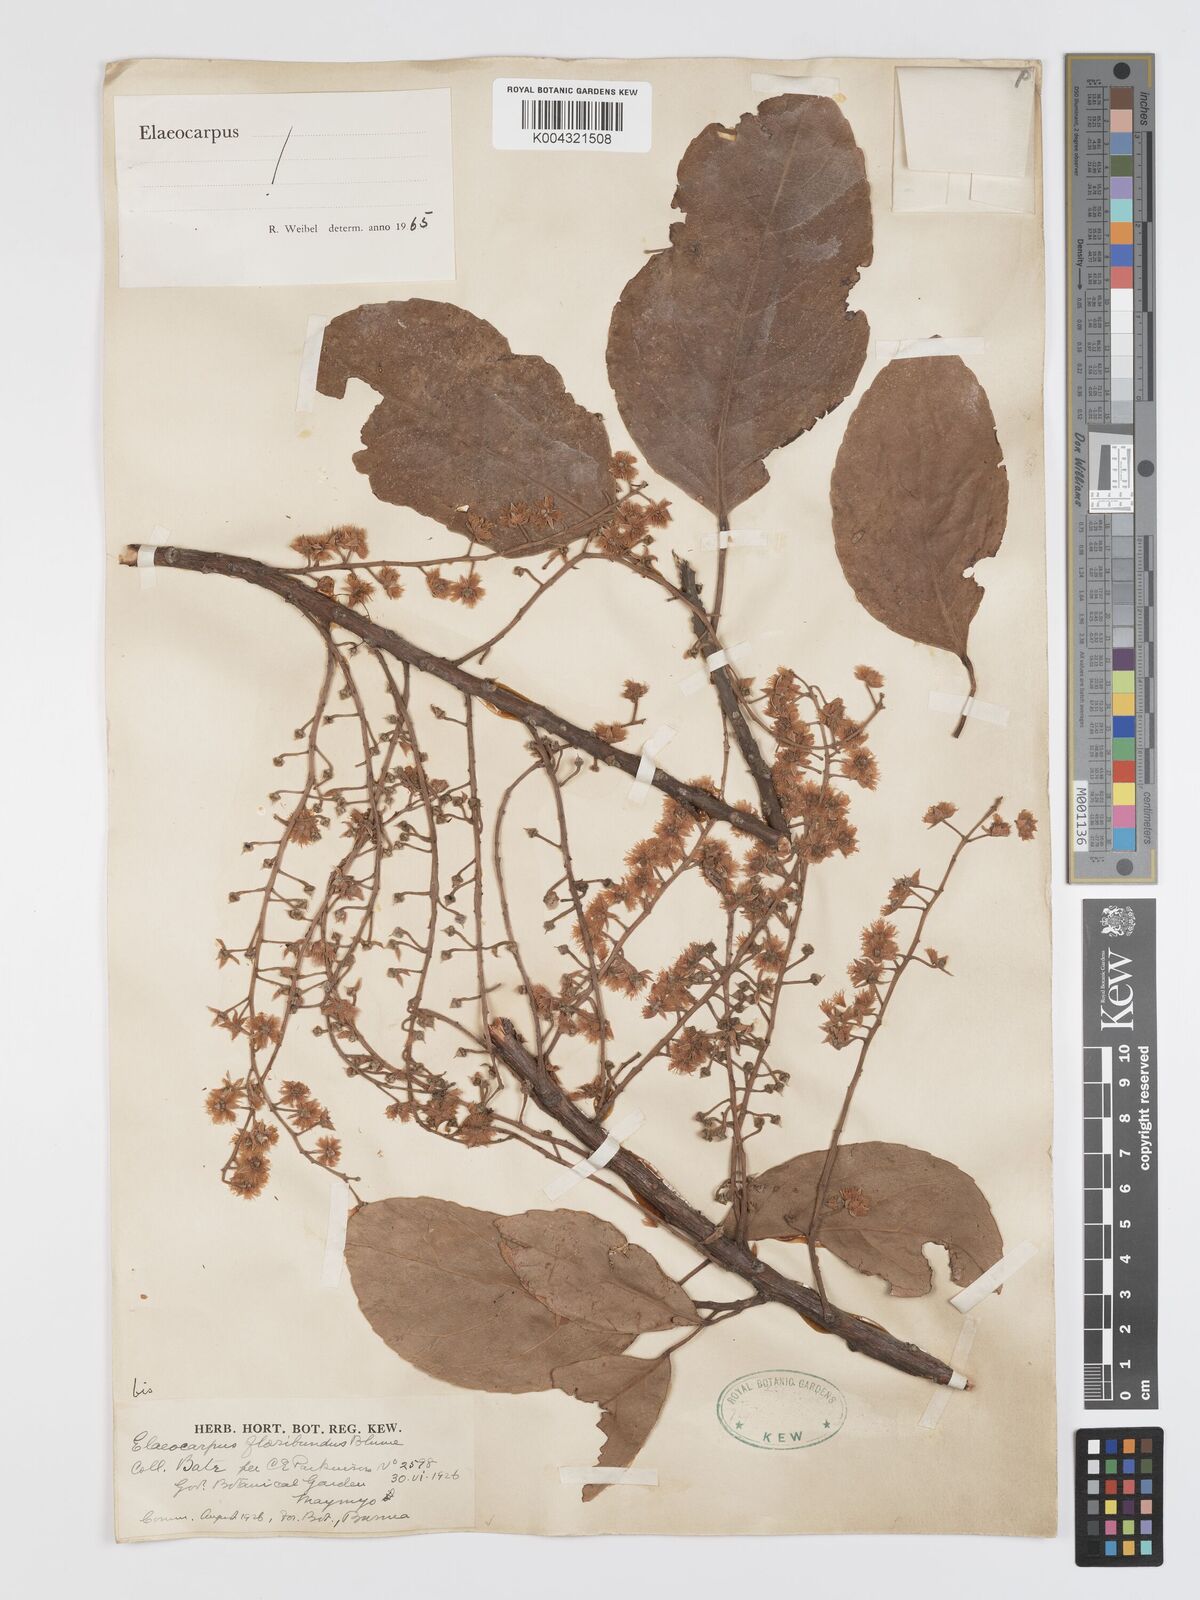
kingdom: Plantae
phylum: Tracheophyta
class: Magnoliopsida
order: Oxalidales
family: Elaeocarpaceae
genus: Elaeocarpus
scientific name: Elaeocarpus floribundus
